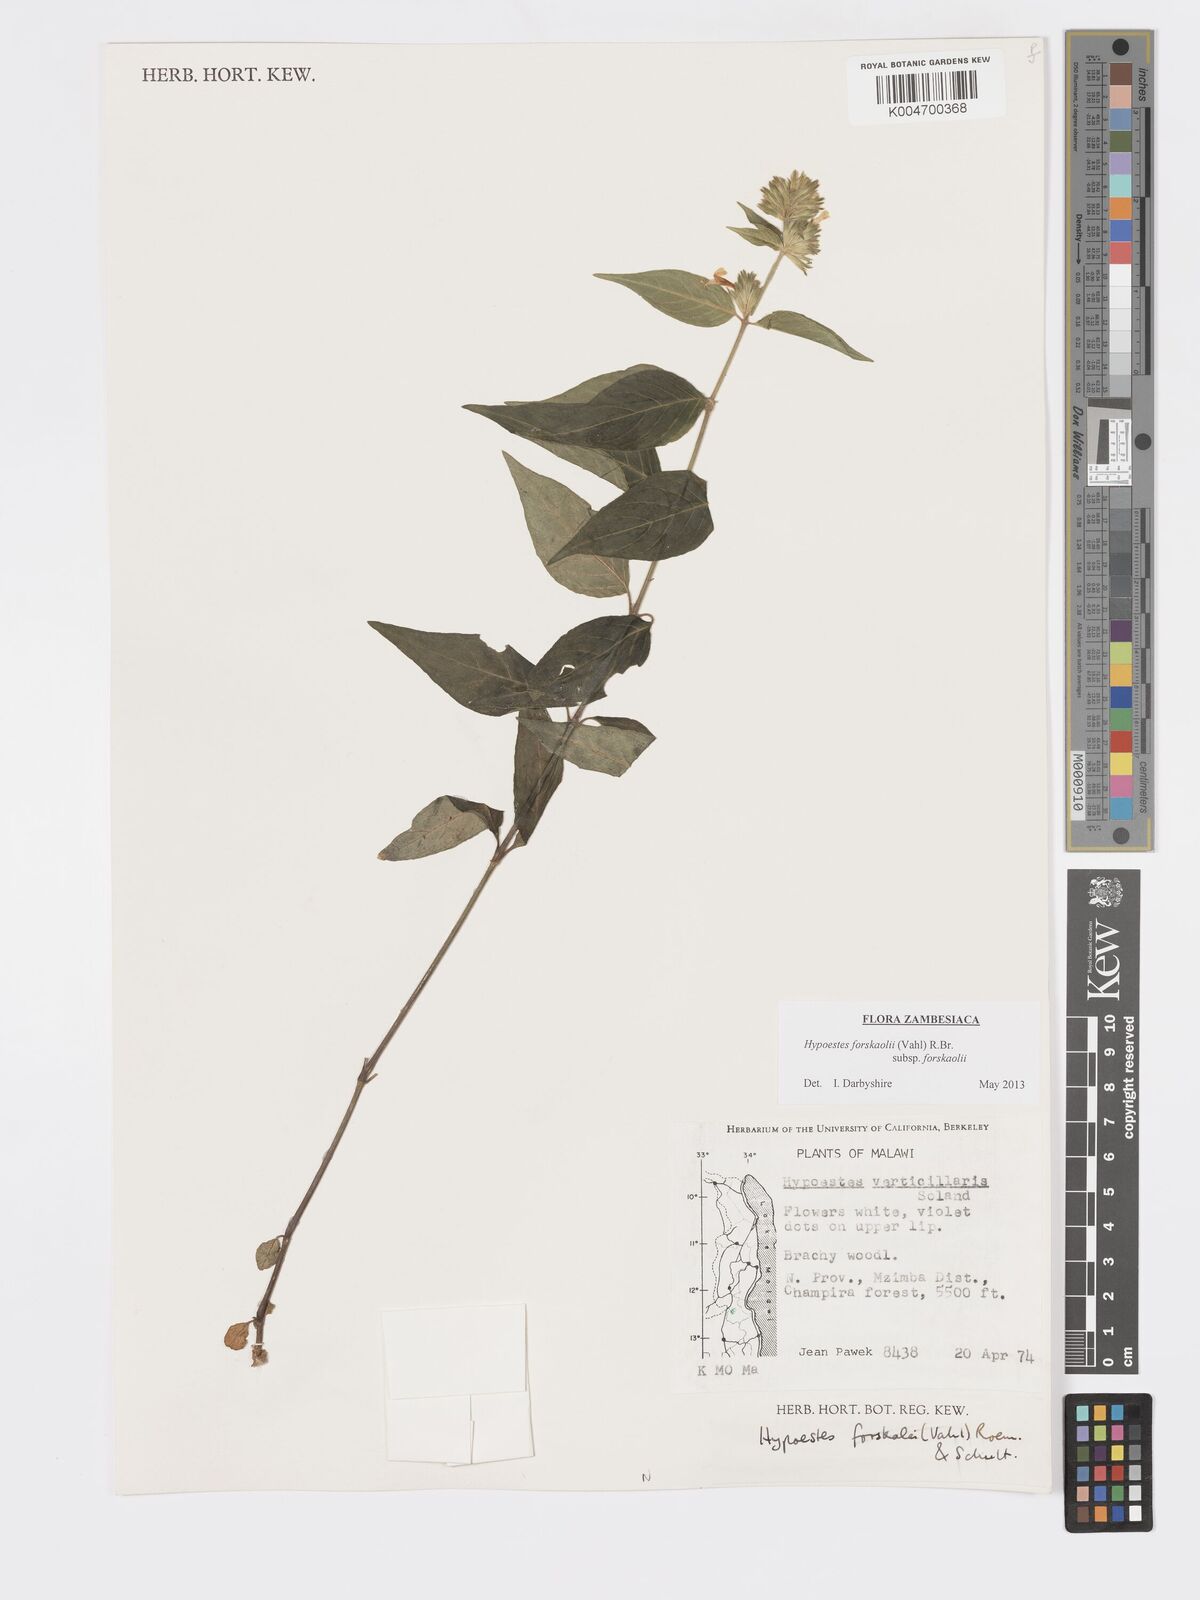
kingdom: Plantae
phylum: Tracheophyta
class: Magnoliopsida
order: Lamiales
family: Acanthaceae
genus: Hypoestes
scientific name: Hypoestes forskaolii
